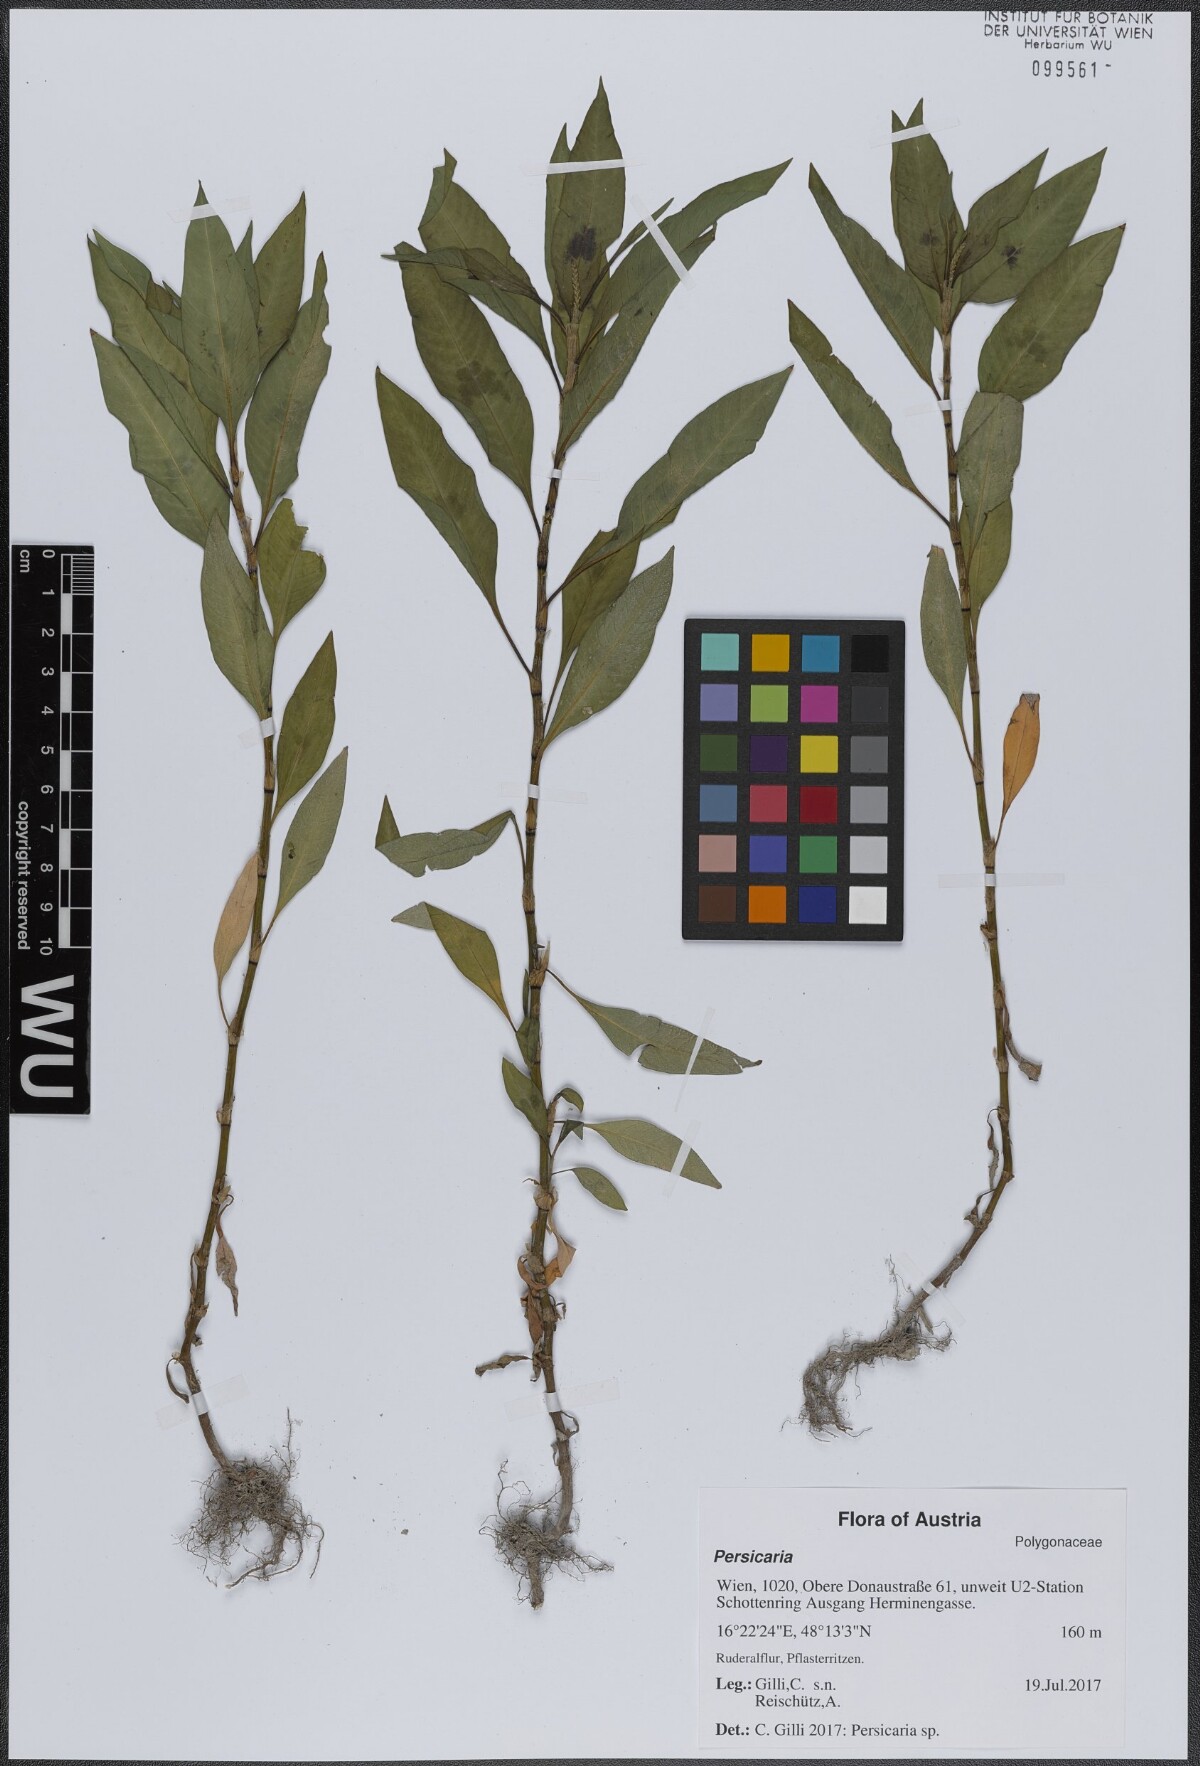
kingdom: Plantae
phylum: Tracheophyta
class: Magnoliopsida
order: Caryophyllales
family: Polygonaceae
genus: Persicaria
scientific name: Persicaria
